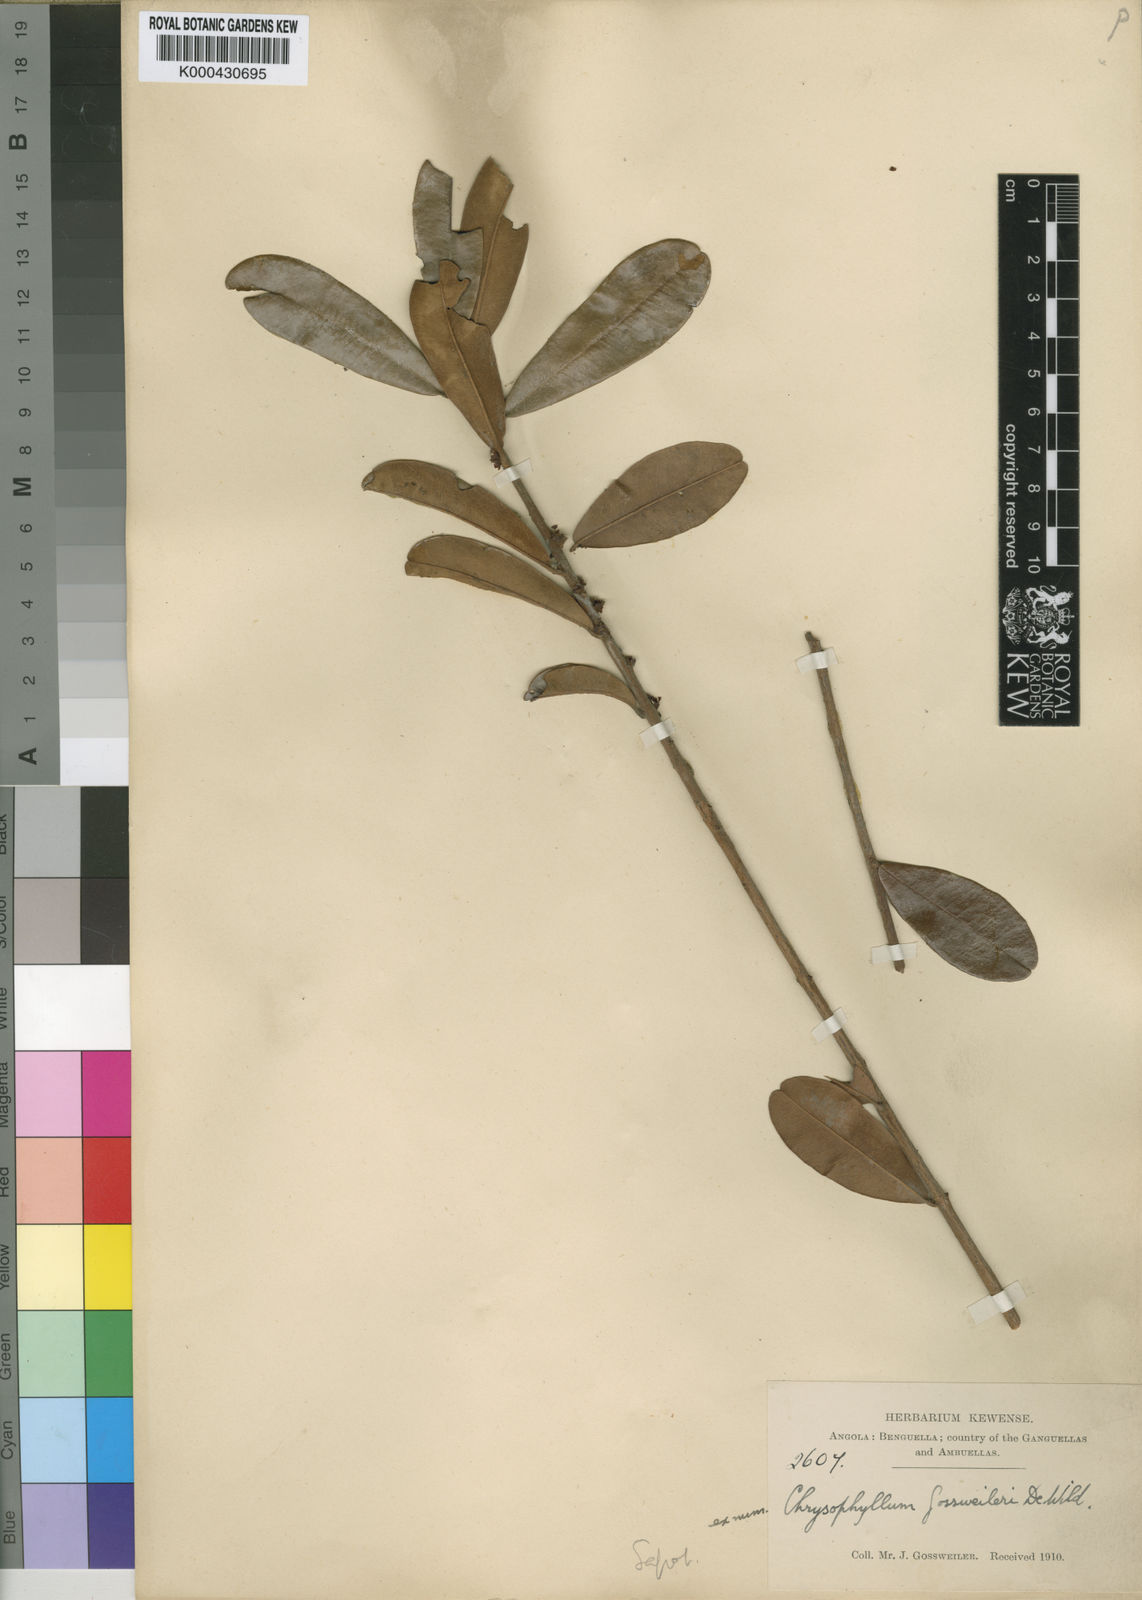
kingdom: Plantae
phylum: Tracheophyta
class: Magnoliopsida
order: Ericales
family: Sapotaceae
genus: Englerophytum
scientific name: Englerophytum
